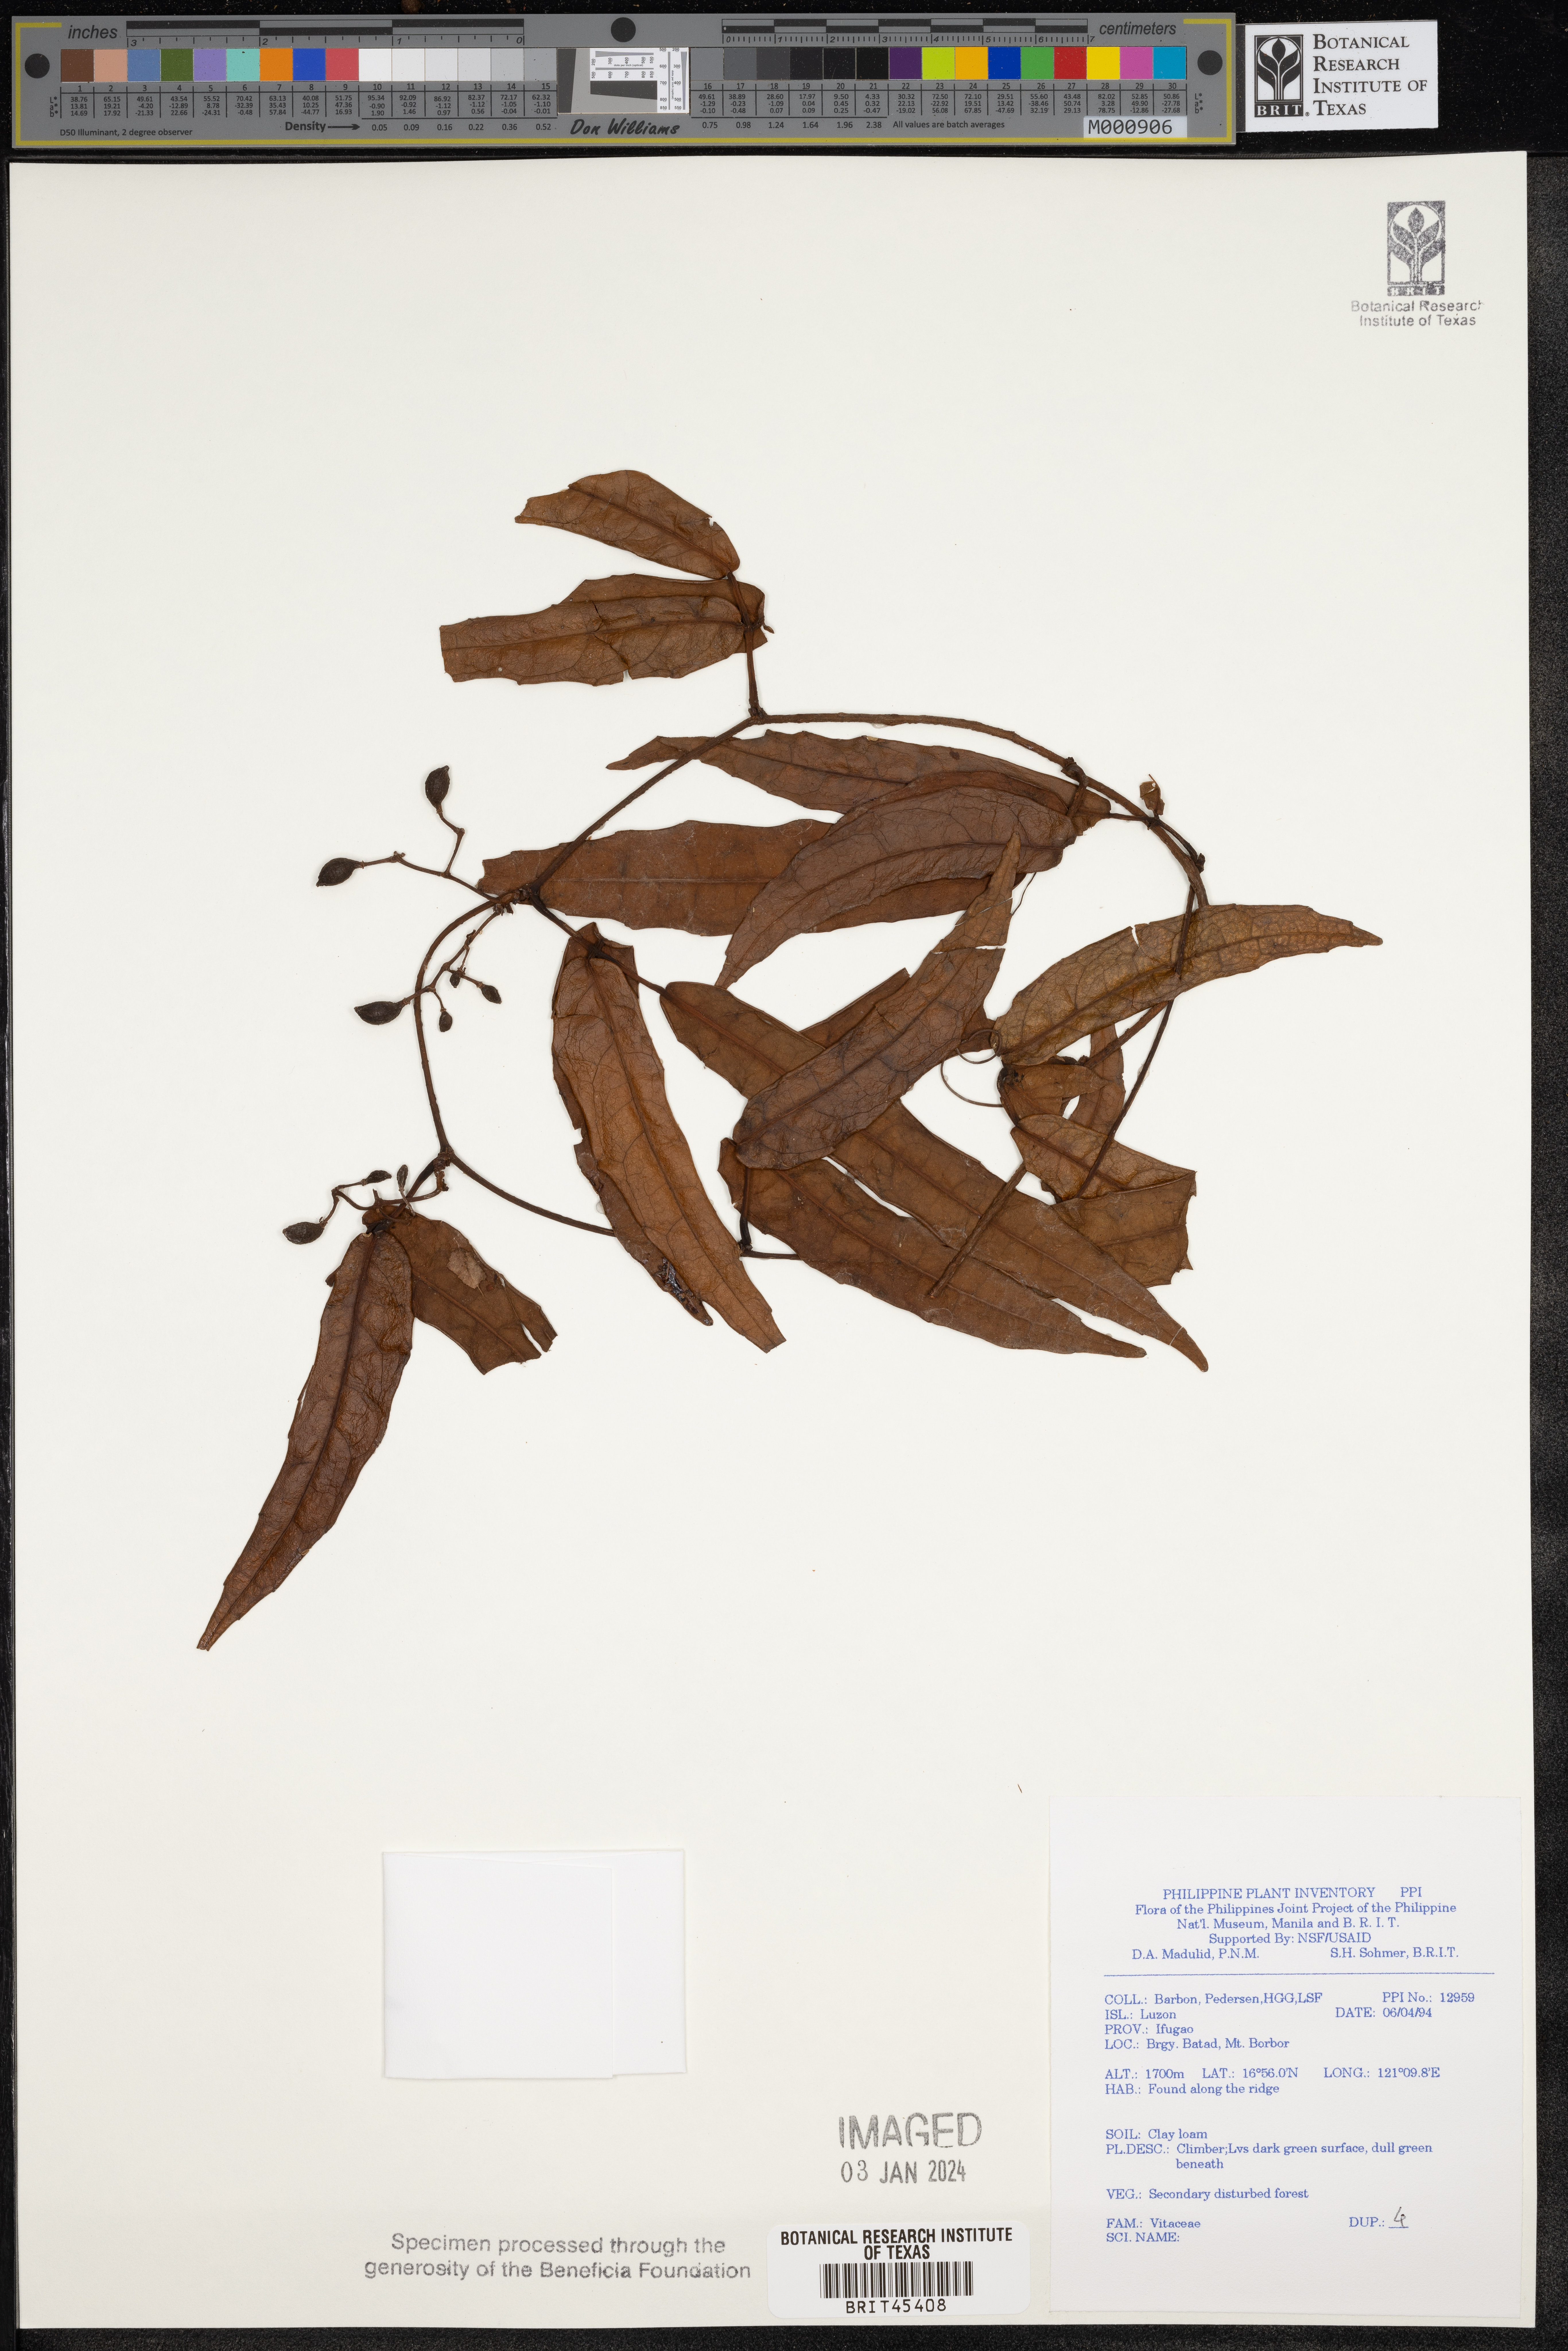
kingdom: Plantae
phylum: Tracheophyta
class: Magnoliopsida
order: Vitales
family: Vitaceae
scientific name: Vitaceae
